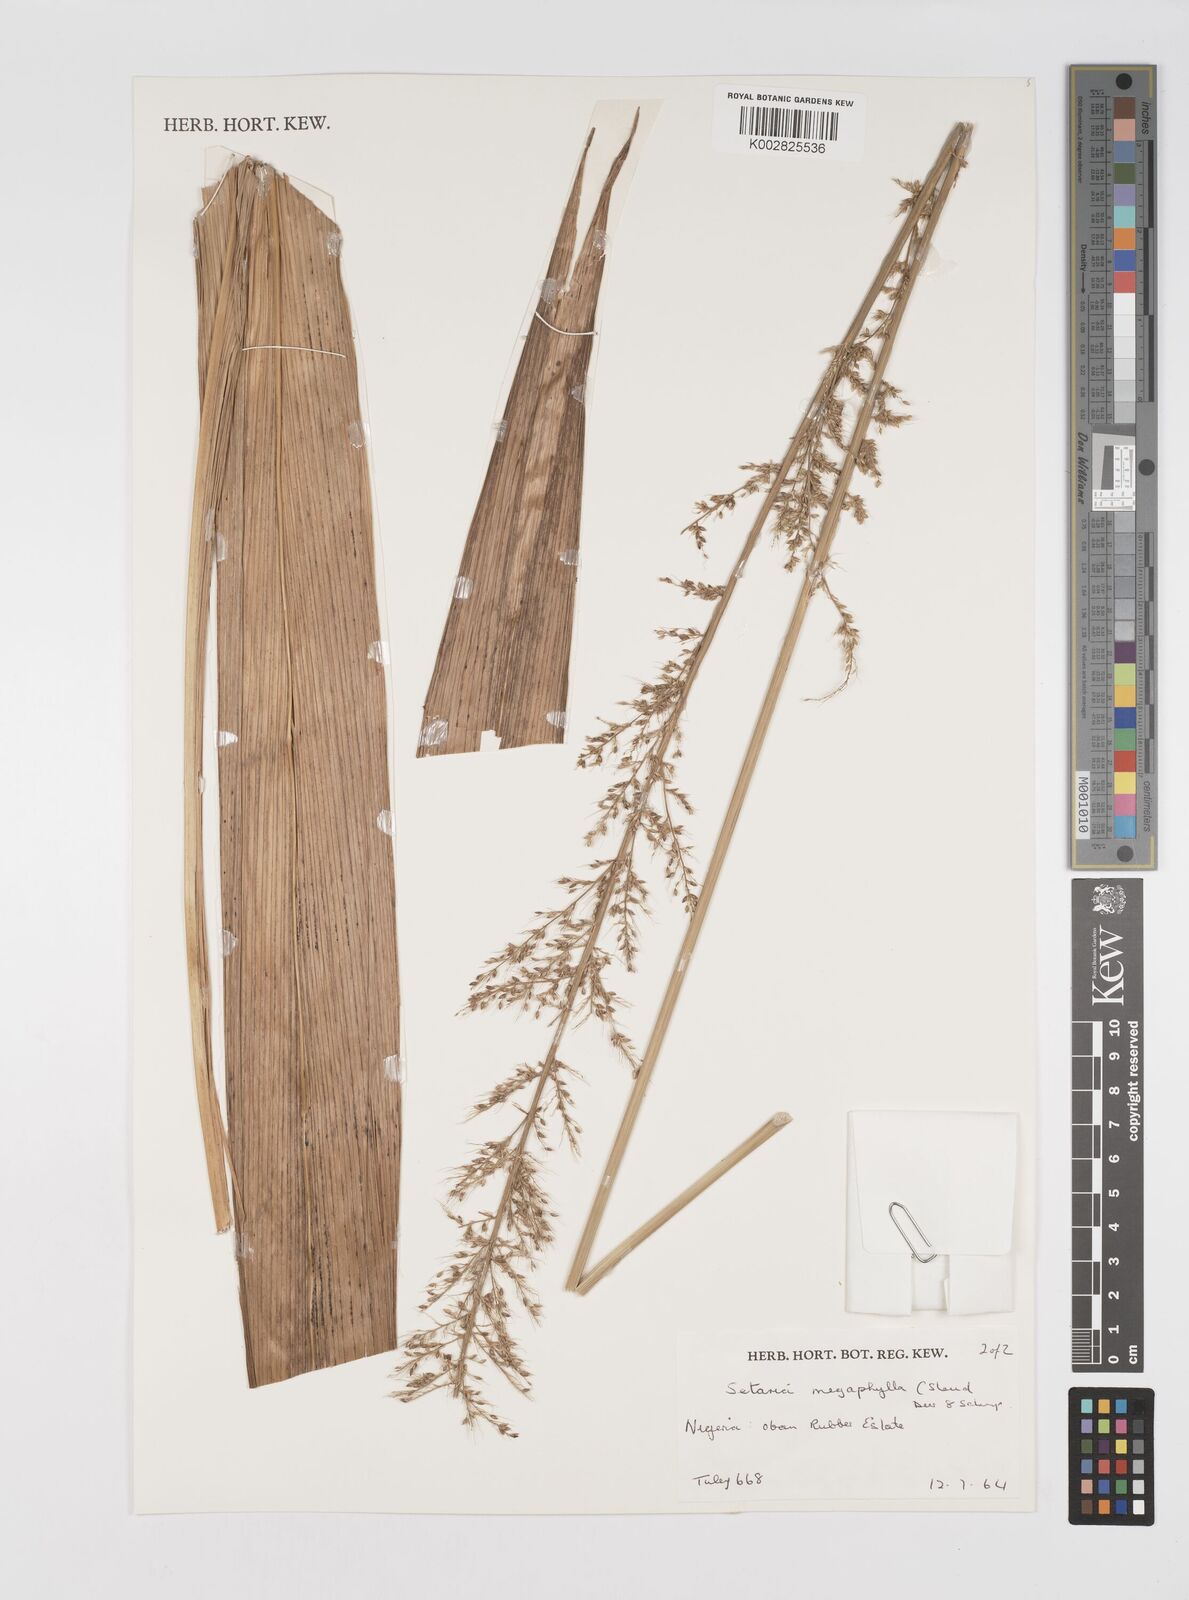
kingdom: Plantae
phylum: Tracheophyta
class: Liliopsida
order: Poales
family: Poaceae
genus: Setaria
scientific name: Setaria megaphylla
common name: Bigleaf bristlegrass
